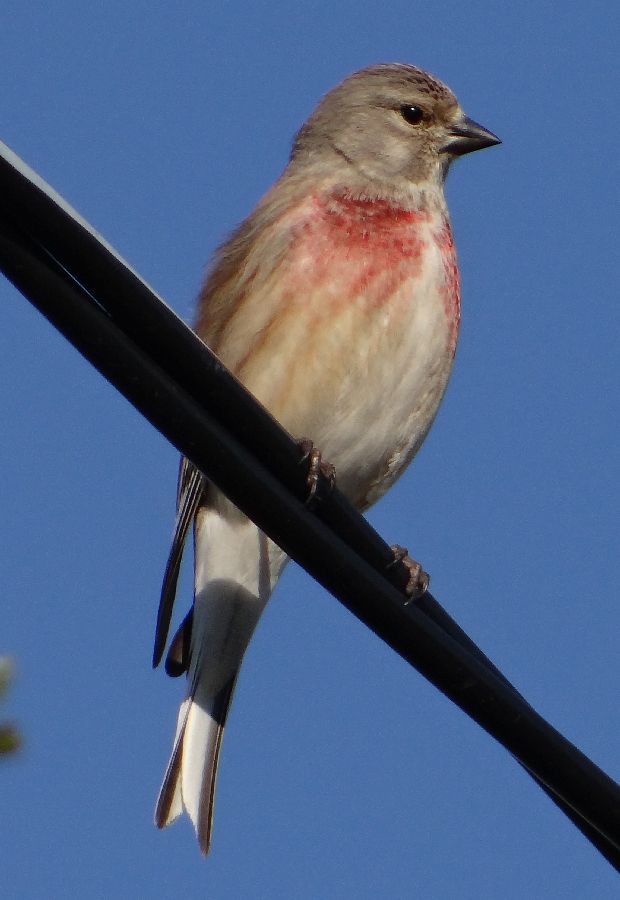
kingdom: Animalia
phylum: Chordata
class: Aves
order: Passeriformes
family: Fringillidae
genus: Linaria
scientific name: Linaria cannabina
